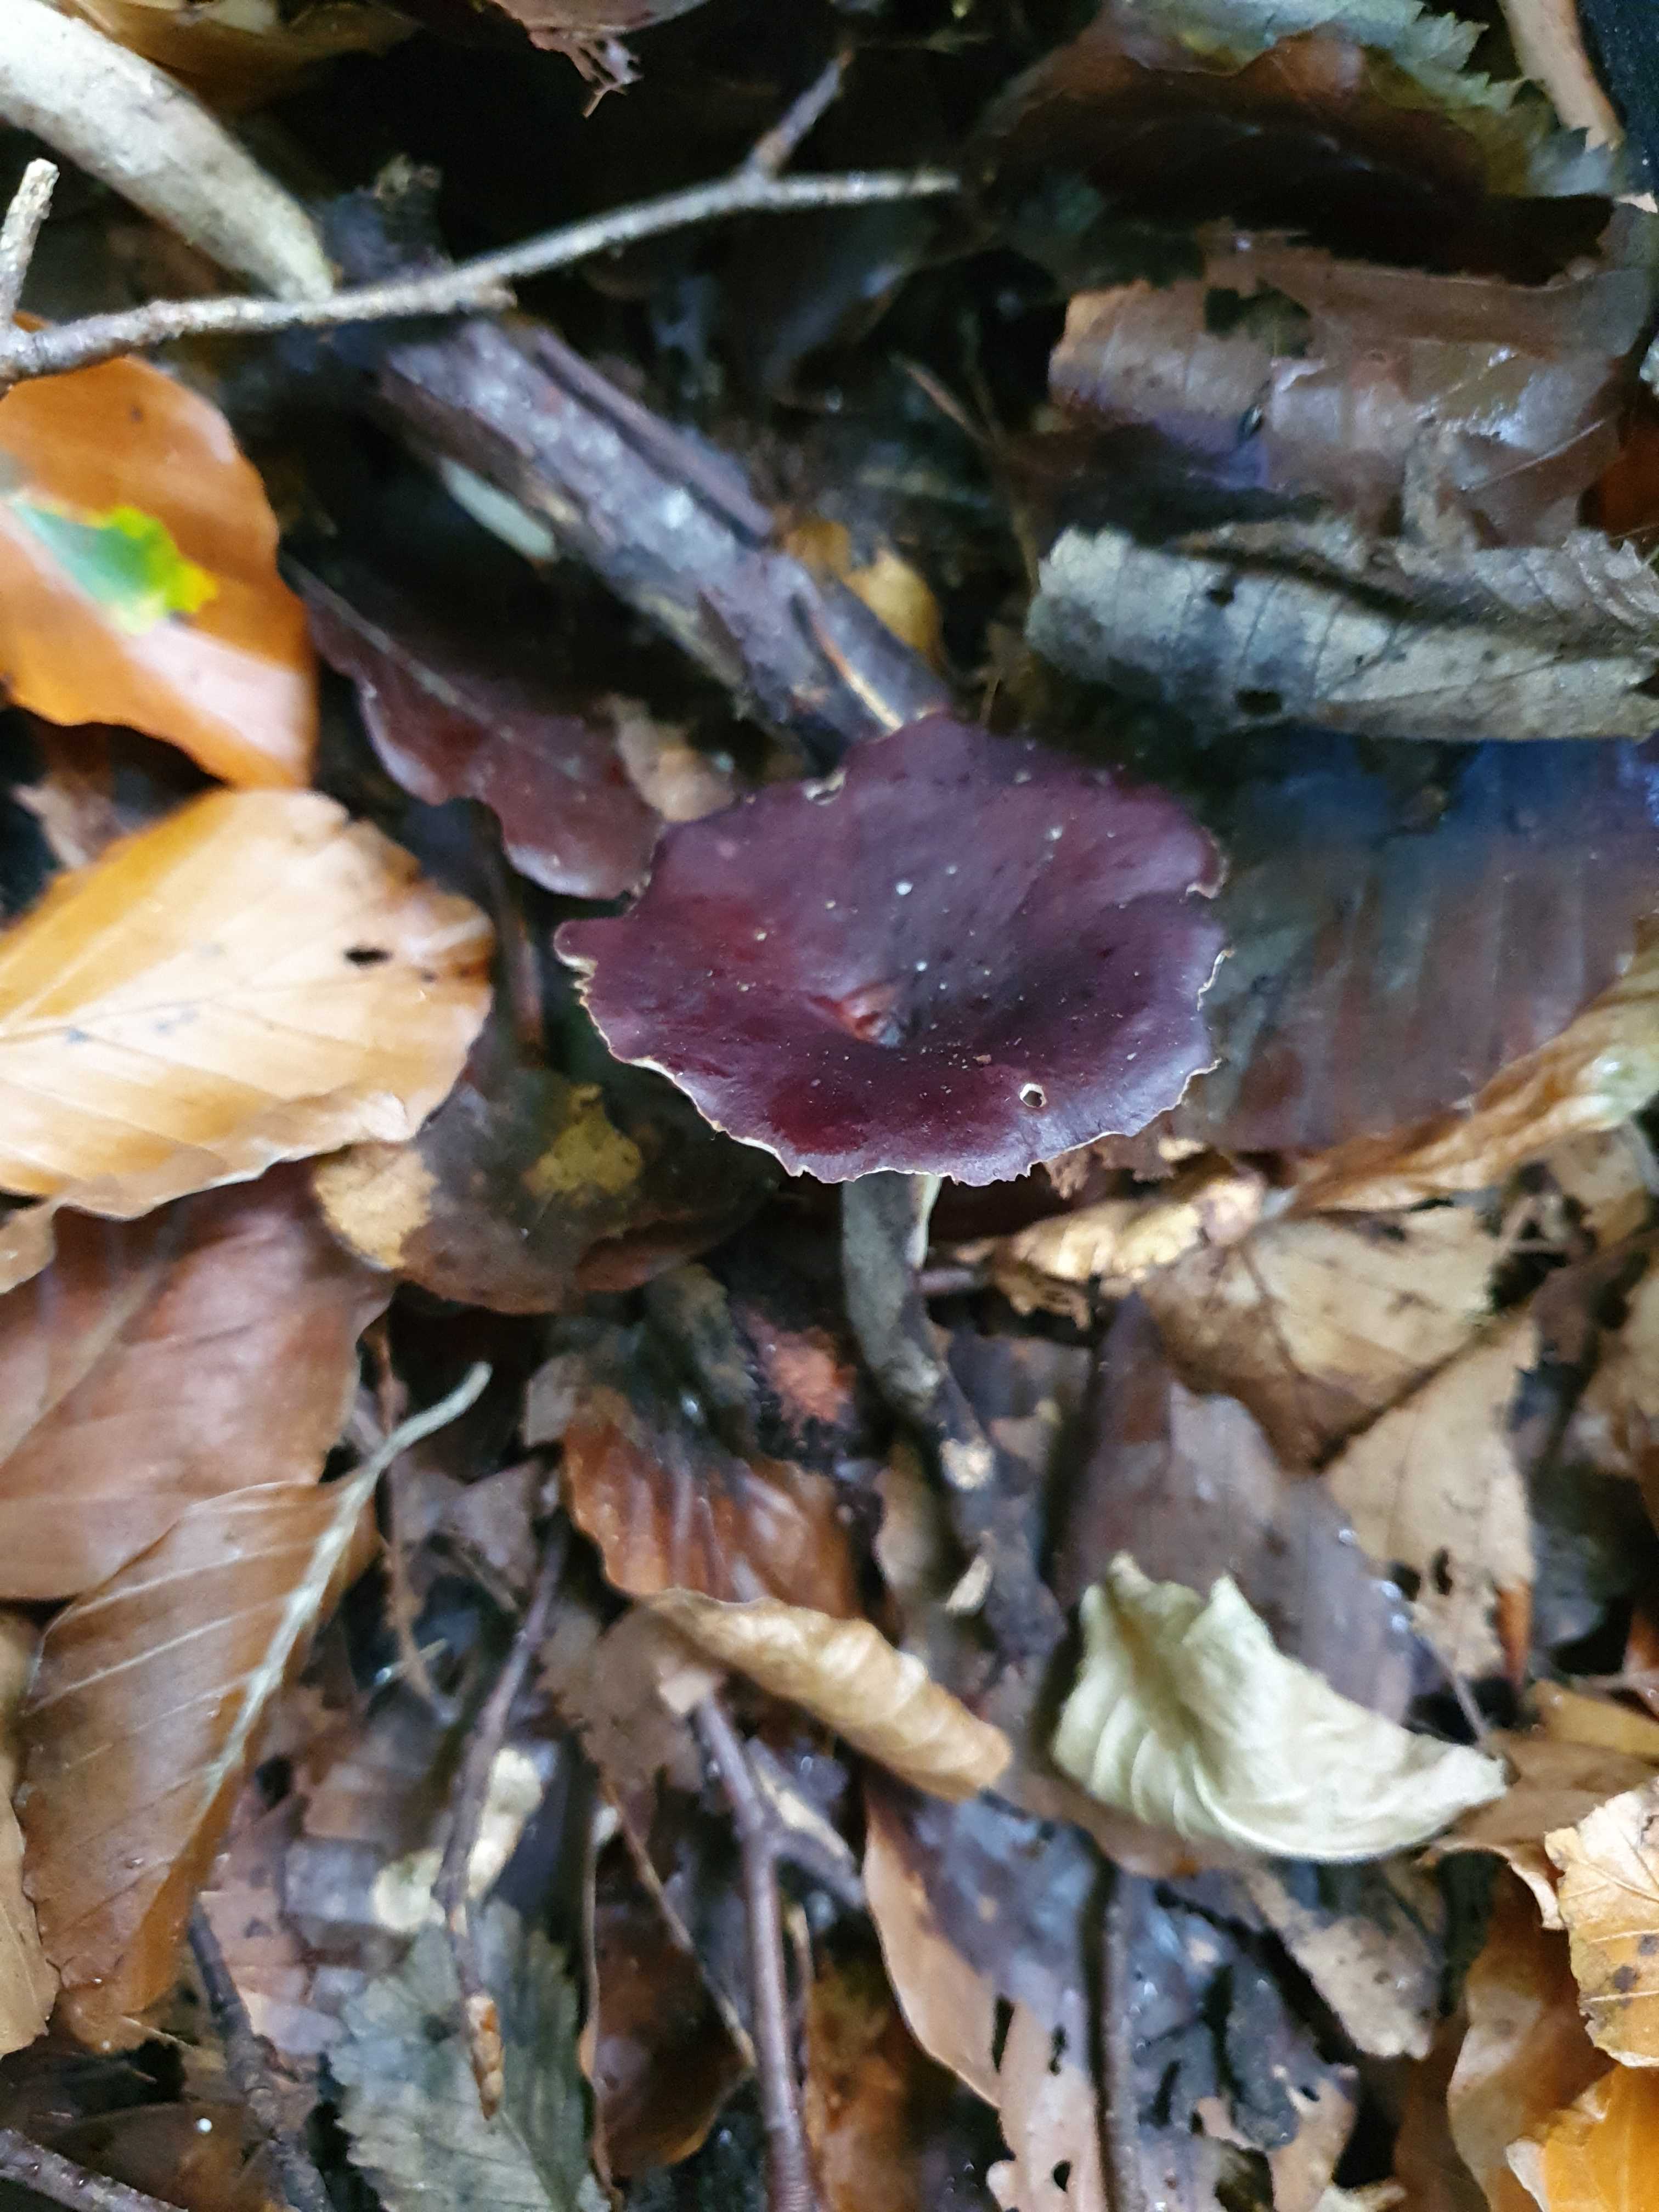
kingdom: Fungi
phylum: Basidiomycota
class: Agaricomycetes
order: Polyporales
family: Polyporaceae
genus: Picipes
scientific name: Picipes badius
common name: kastaniebrun stilkporesvamp
